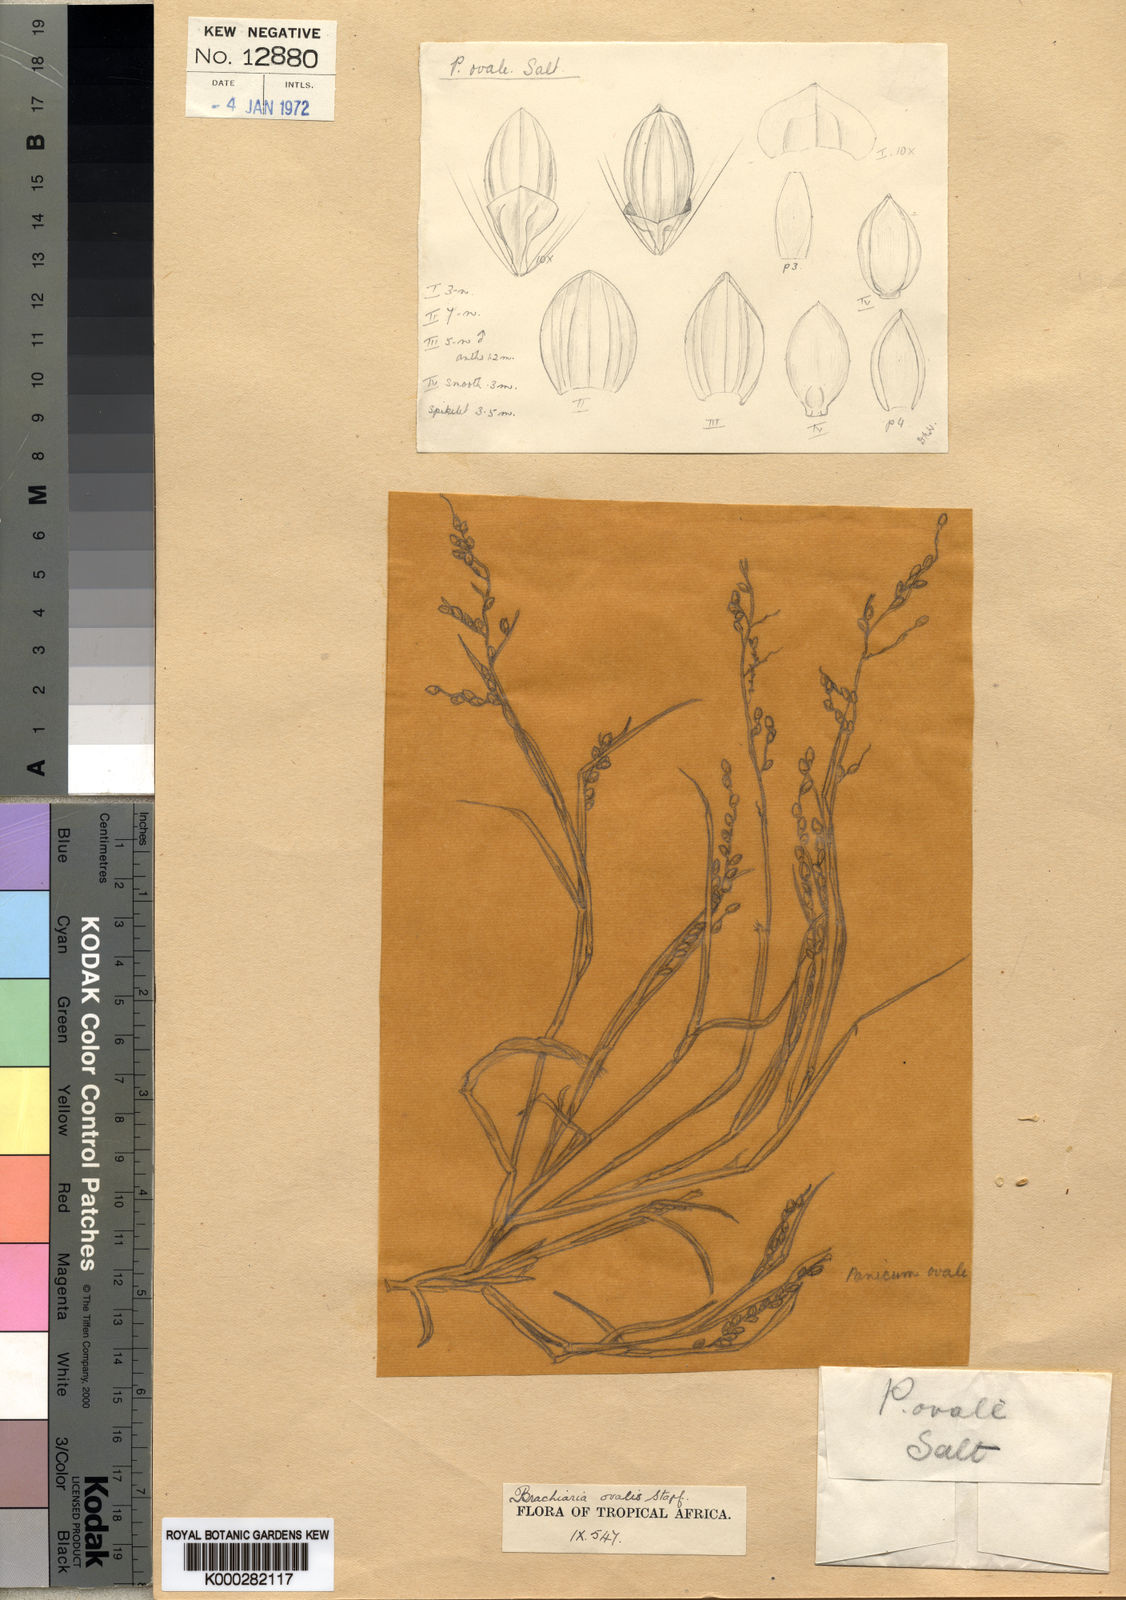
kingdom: Plantae
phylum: Tracheophyta
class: Liliopsida
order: Poales
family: Poaceae
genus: Urochloa
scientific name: Urochloa ovalis
